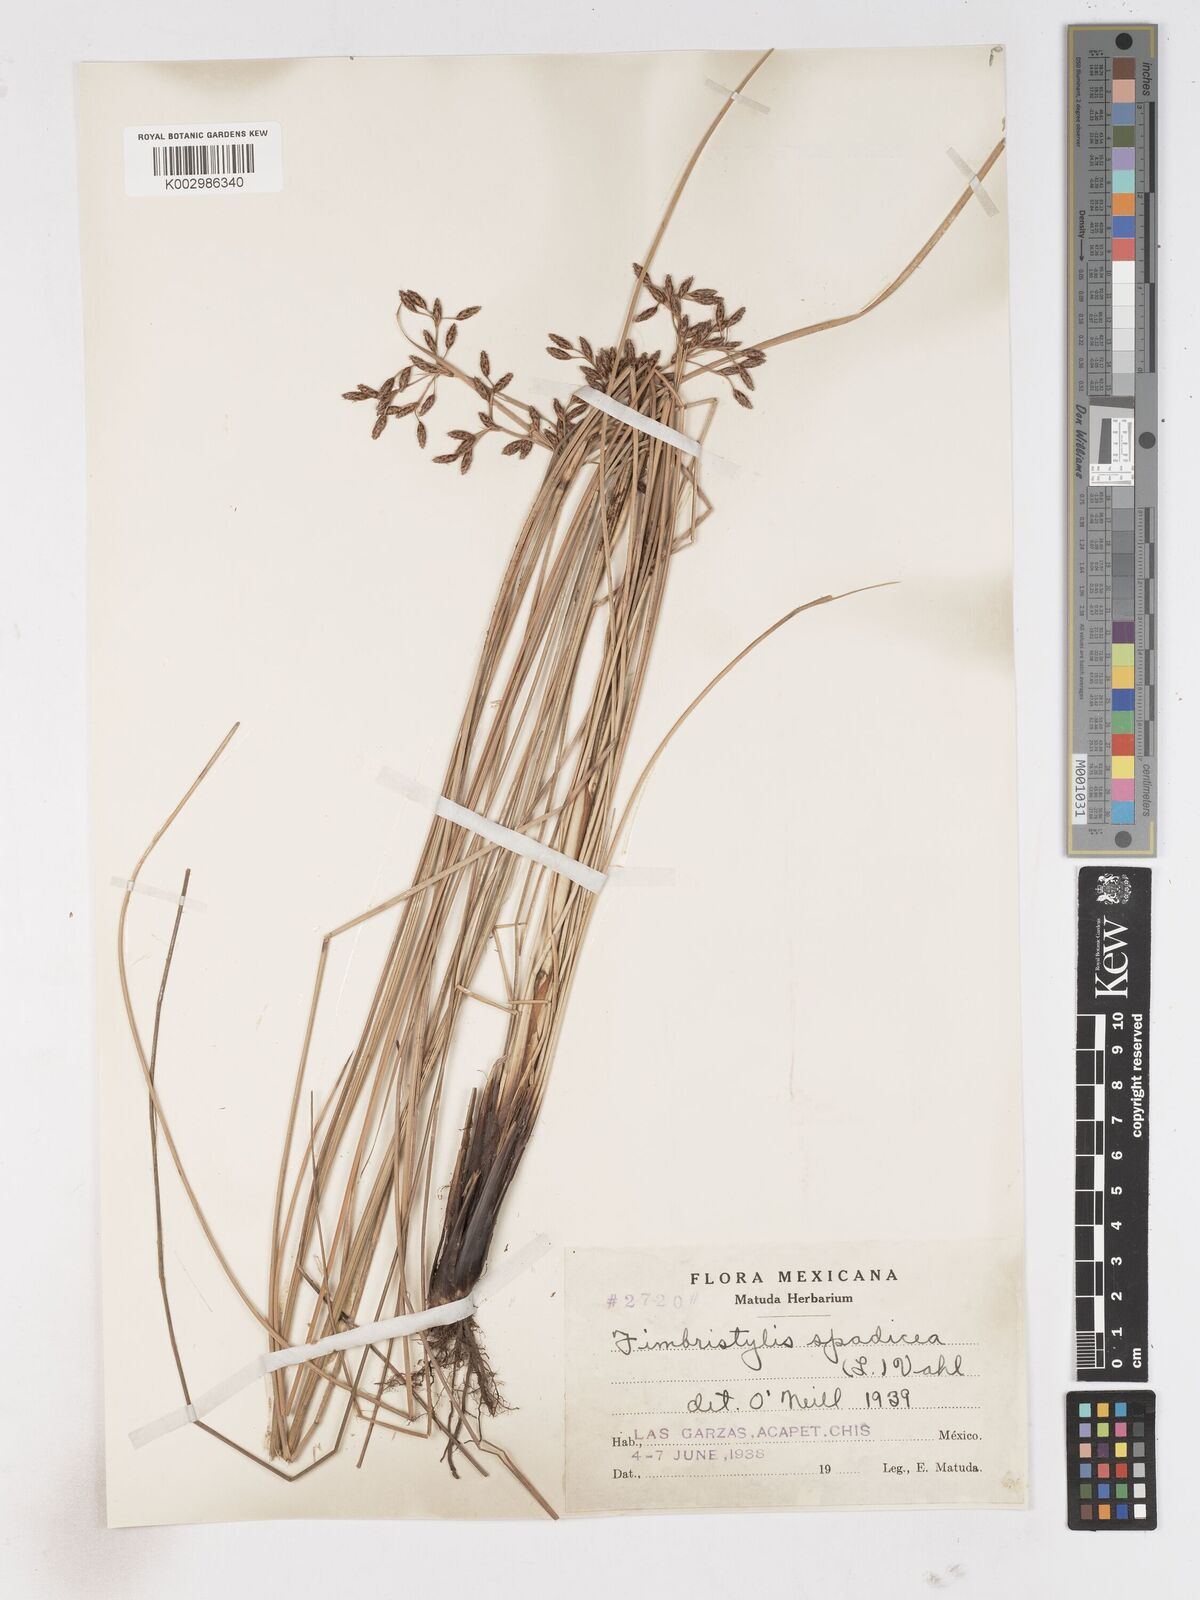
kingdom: Plantae
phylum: Tracheophyta
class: Liliopsida
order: Poales
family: Cyperaceae
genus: Fimbristylis
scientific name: Fimbristylis spadicea
